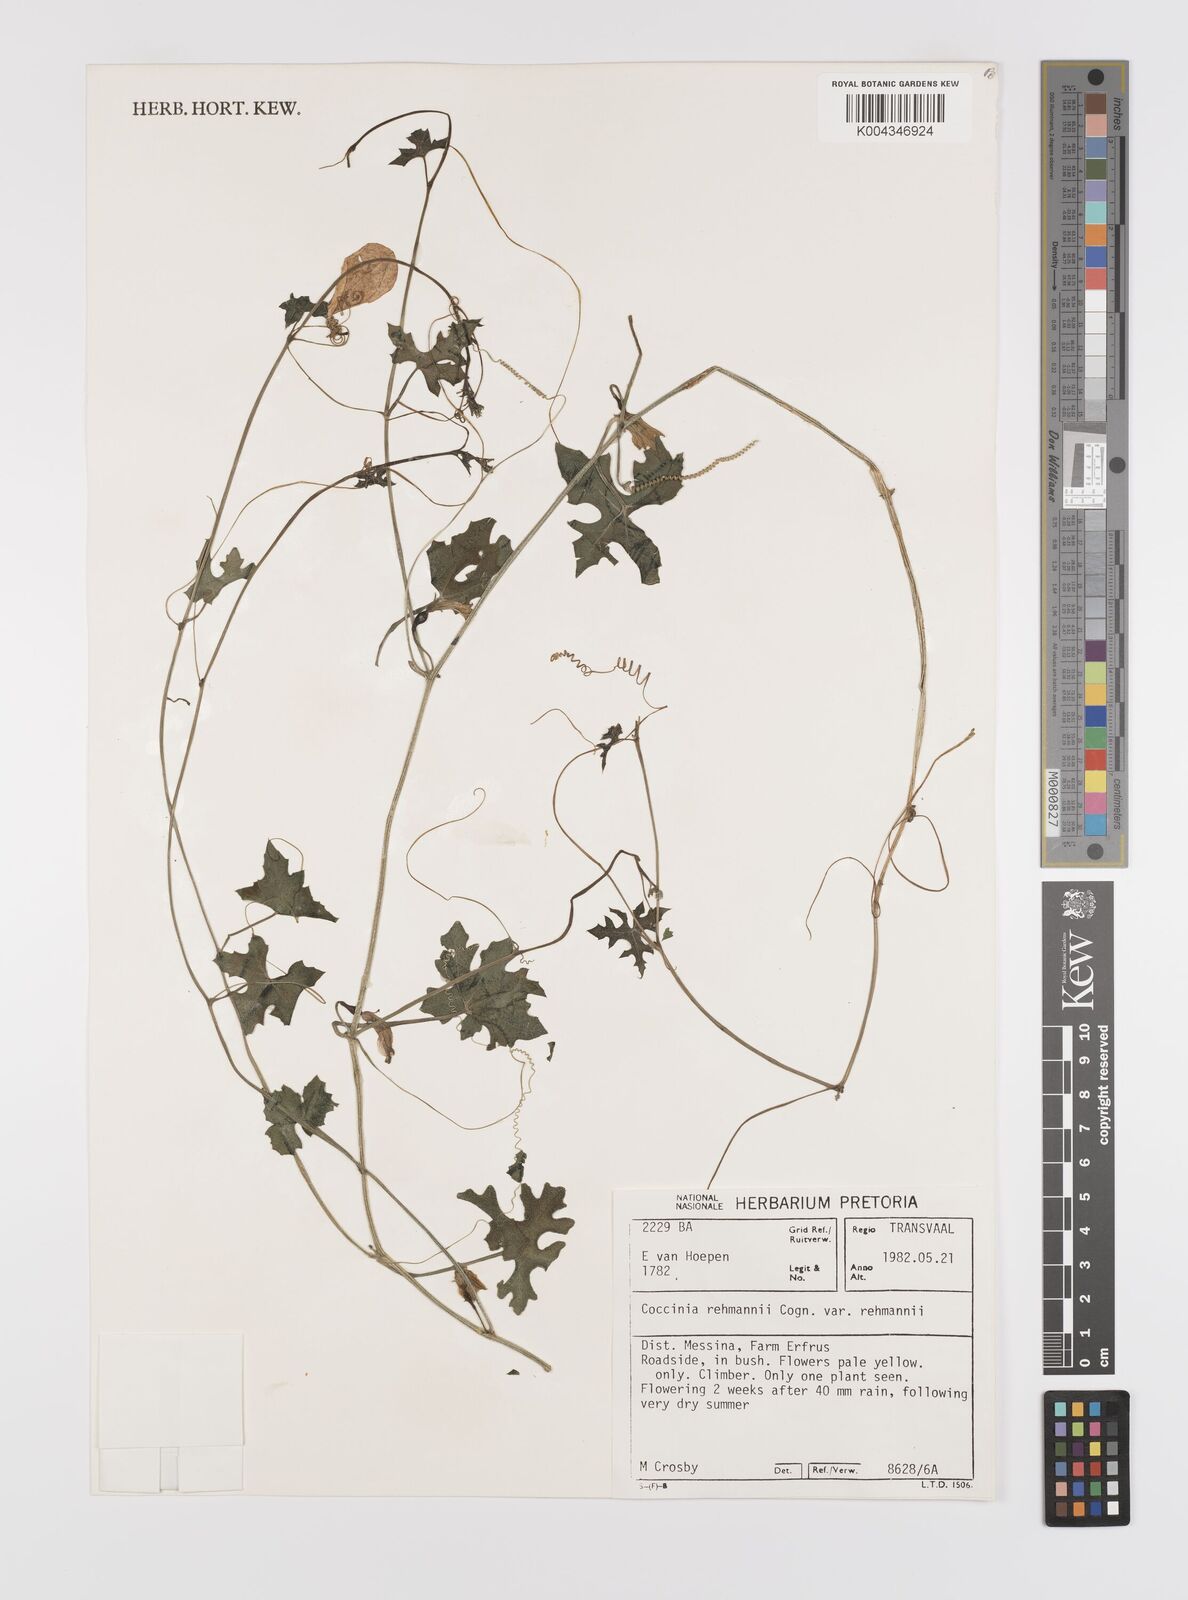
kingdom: Plantae
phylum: Tracheophyta
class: Magnoliopsida
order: Cucurbitales
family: Cucurbitaceae
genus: Coccinia
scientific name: Coccinia rehmannii
